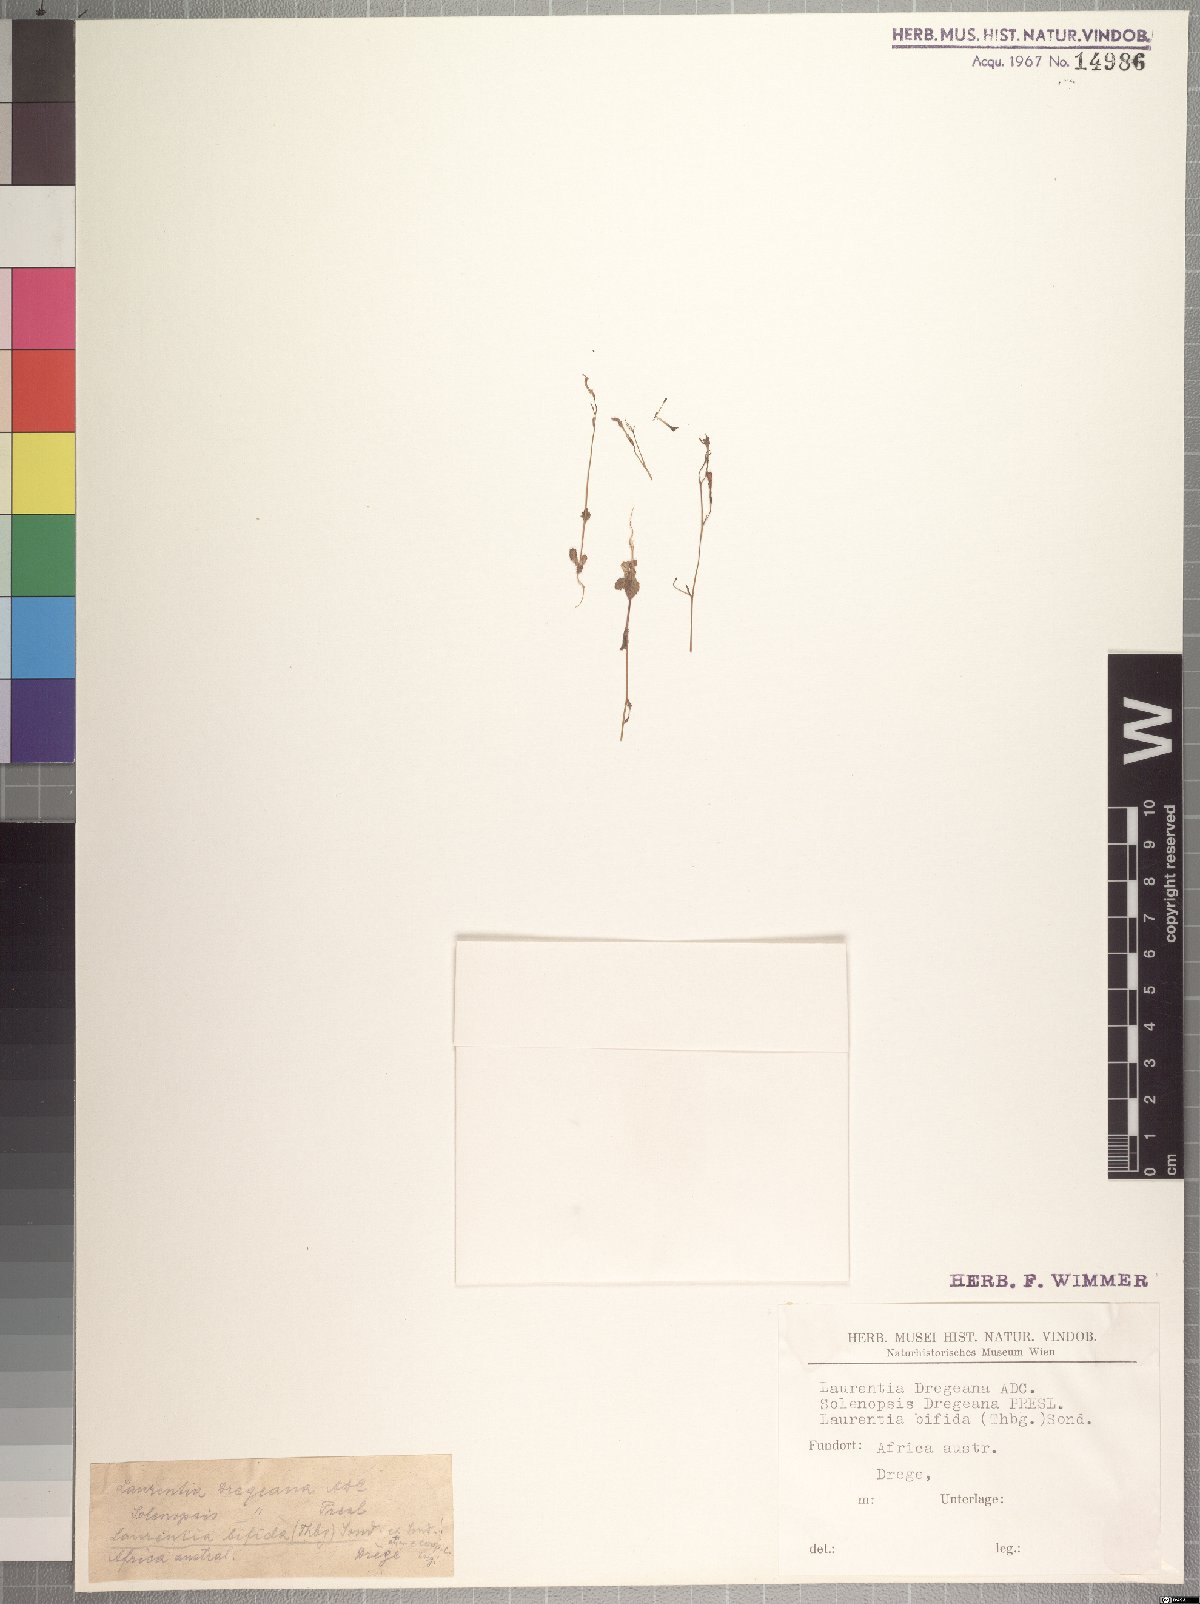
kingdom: Plantae
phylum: Tracheophyta
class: Magnoliopsida
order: Asterales
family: Campanulaceae
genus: Wimmerella
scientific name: Wimmerella bifida
